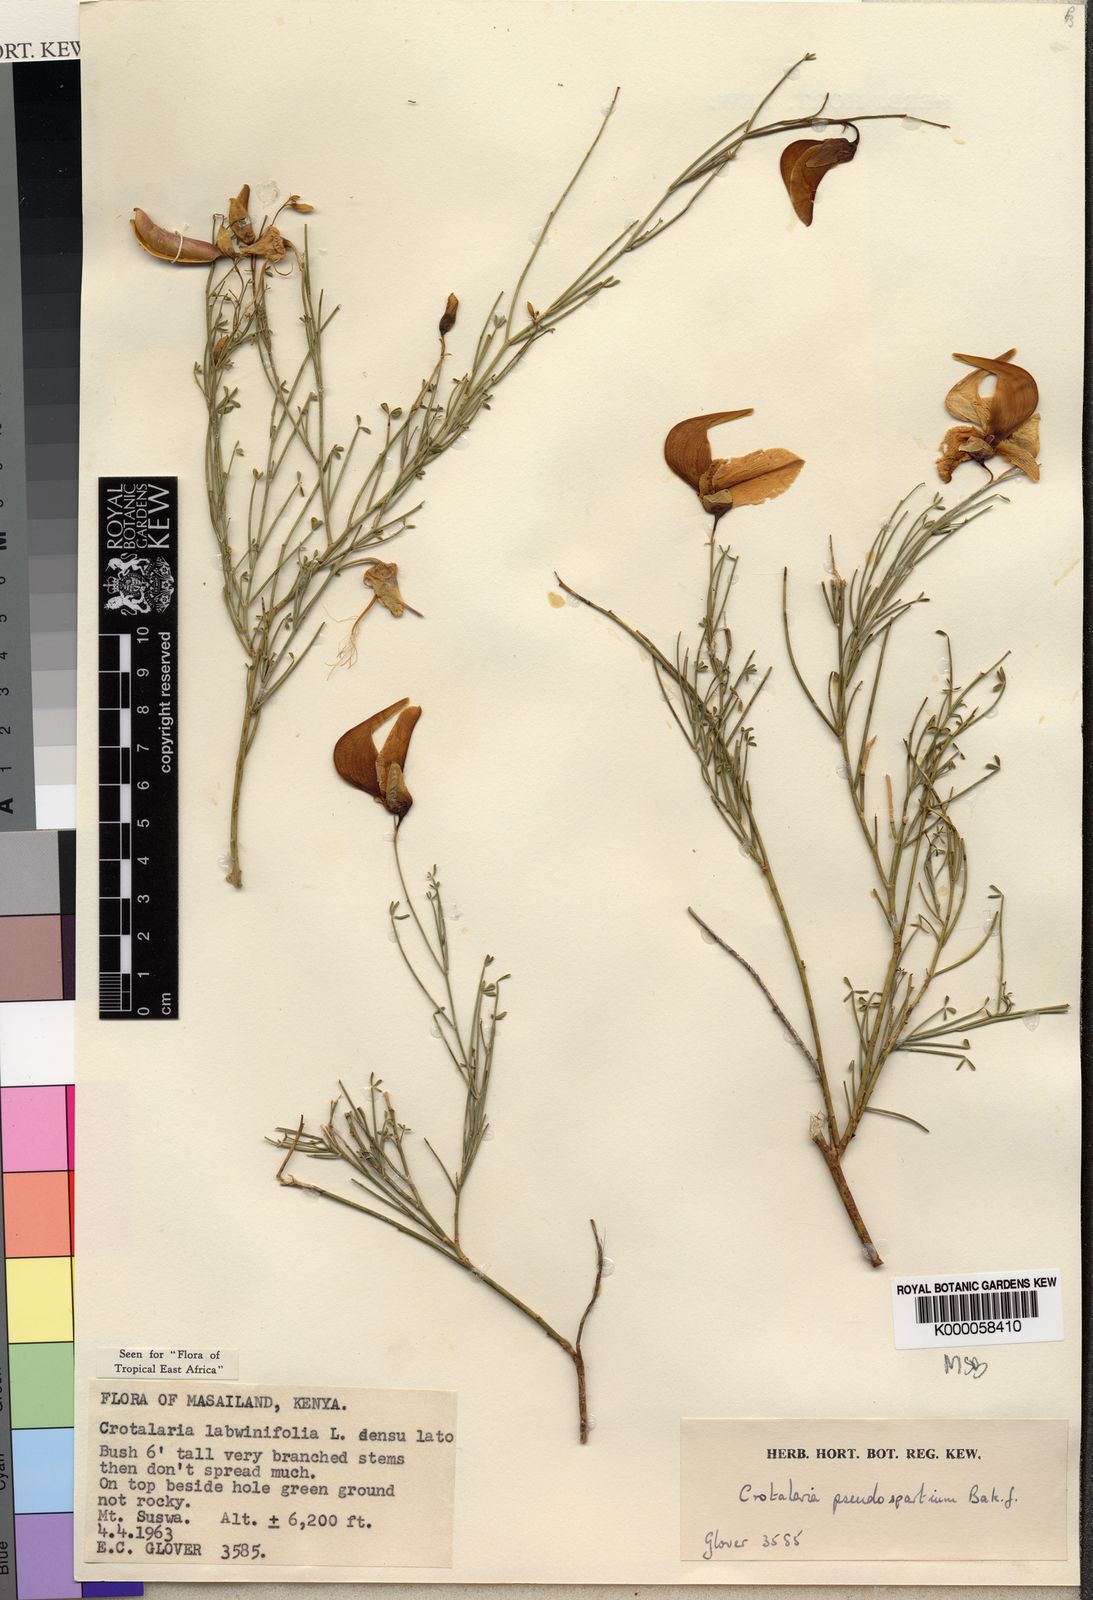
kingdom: Plantae
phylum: Tracheophyta
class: Magnoliopsida
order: Fabales
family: Fabaceae
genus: Crotalaria
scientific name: Crotalaria pseudospartium
